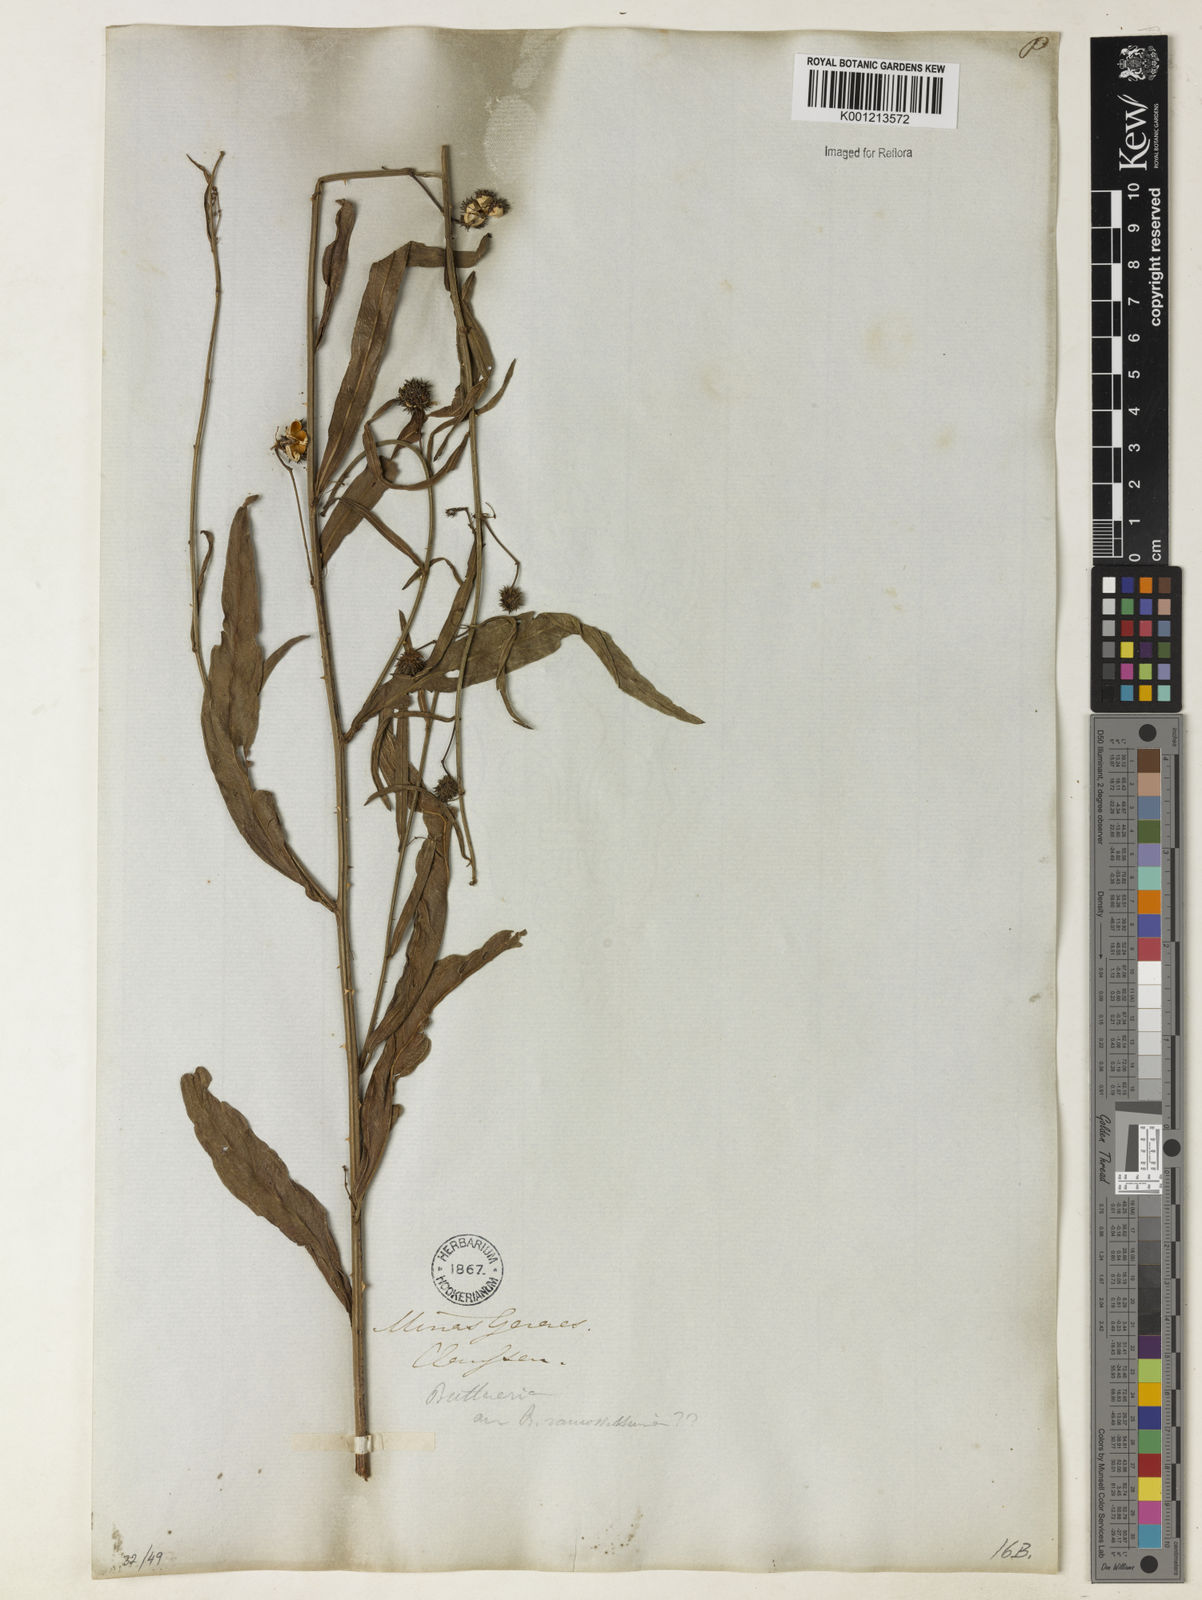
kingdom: Plantae
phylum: Tracheophyta
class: Magnoliopsida
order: Malvales
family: Malvaceae
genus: Byttneria
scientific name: Byttneria
